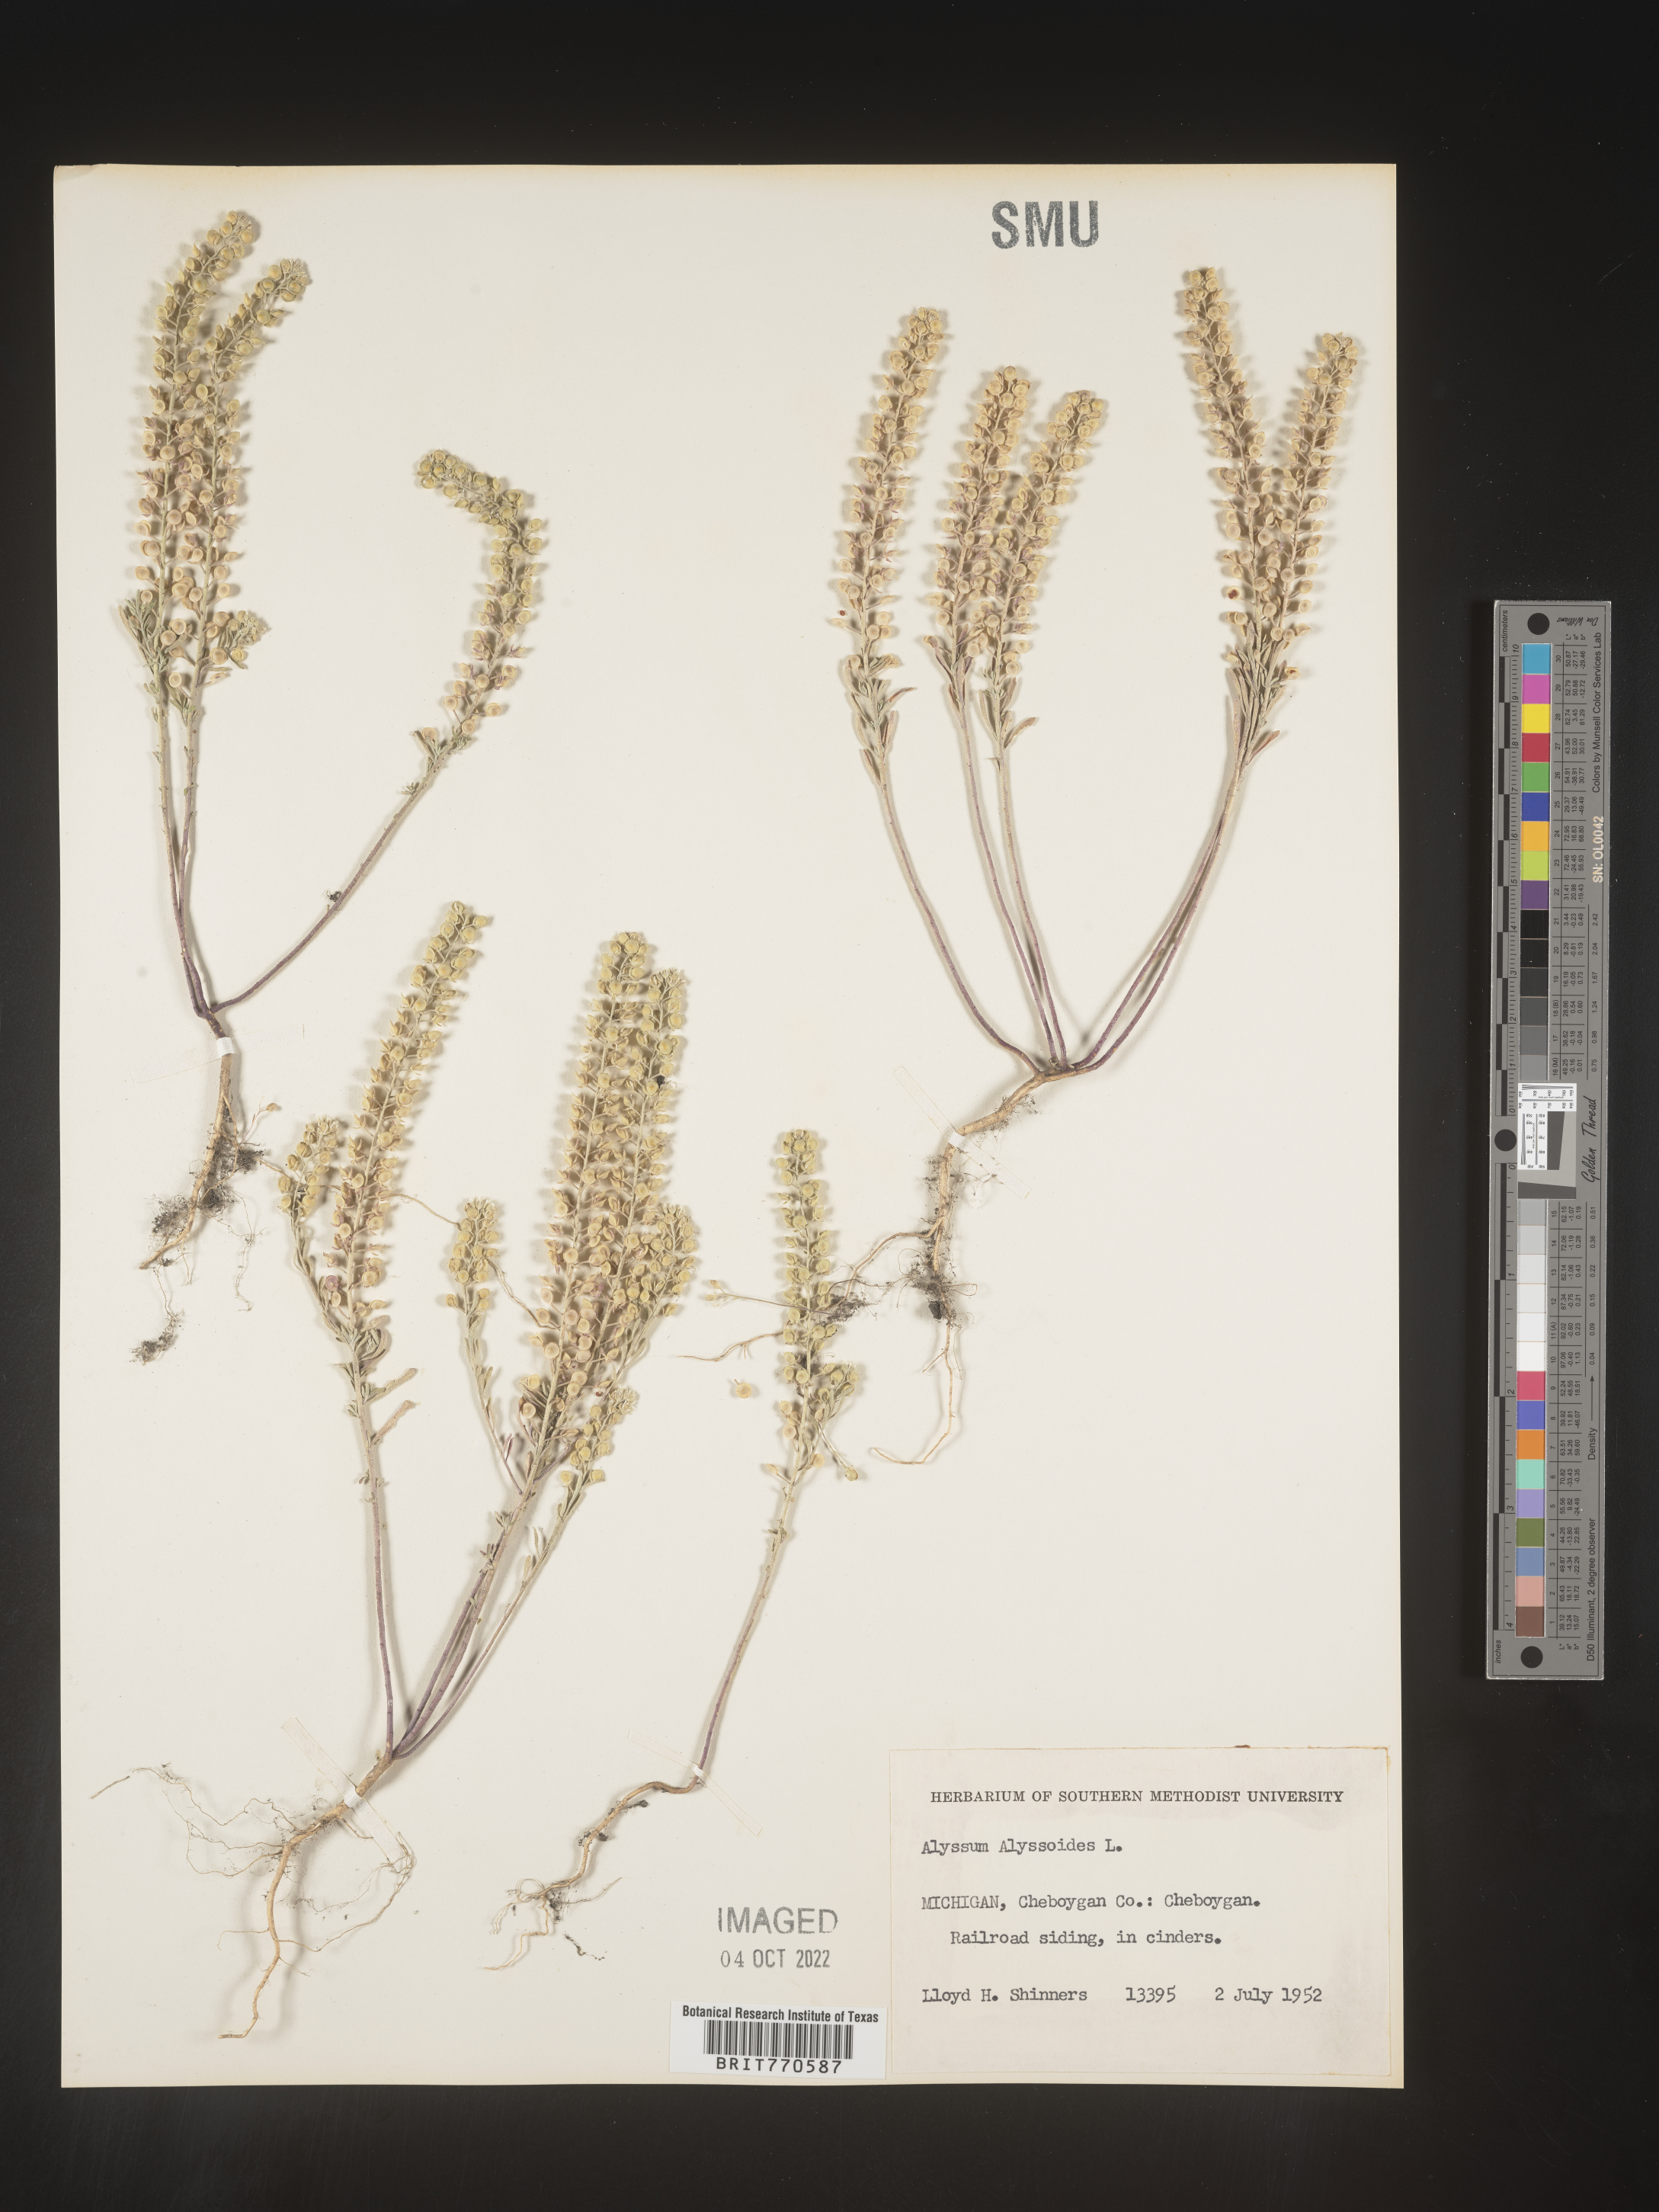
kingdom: Plantae
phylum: Tracheophyta
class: Magnoliopsida
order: Brassicales
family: Brassicaceae
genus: Alyssum
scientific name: Alyssum alyssoides
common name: Small alison
